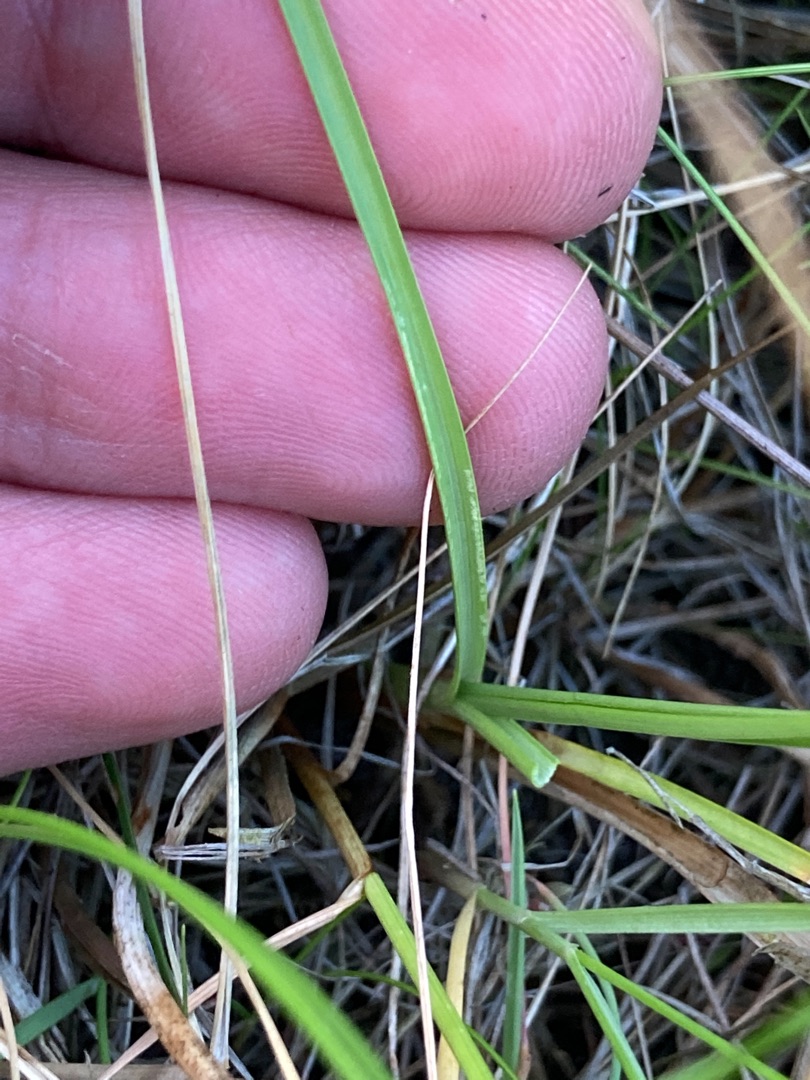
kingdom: Plantae
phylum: Tracheophyta
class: Liliopsida
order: Poales
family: Cyperaceae
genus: Carex
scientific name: Carex extensa
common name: Udspilet star
